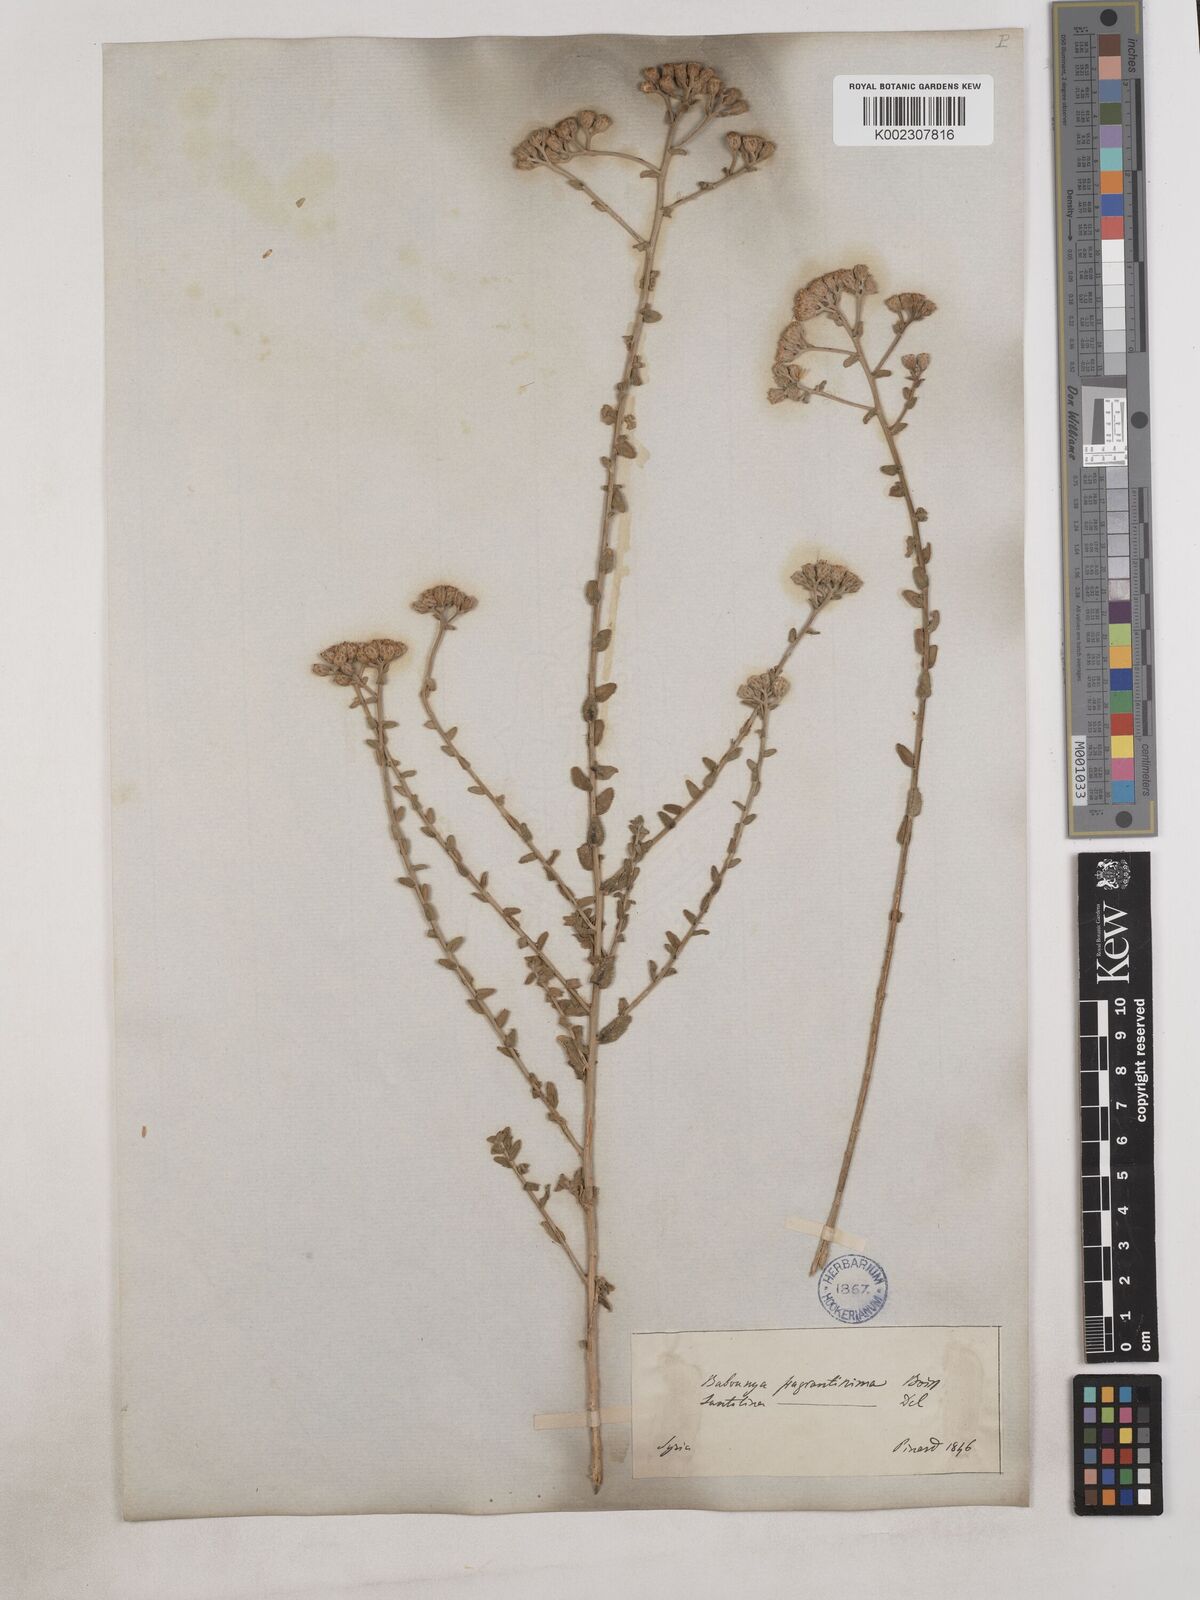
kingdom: Plantae
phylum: Tracheophyta
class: Magnoliopsida
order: Asterales
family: Asteraceae
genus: Achillea
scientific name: Achillea fragrantissima
